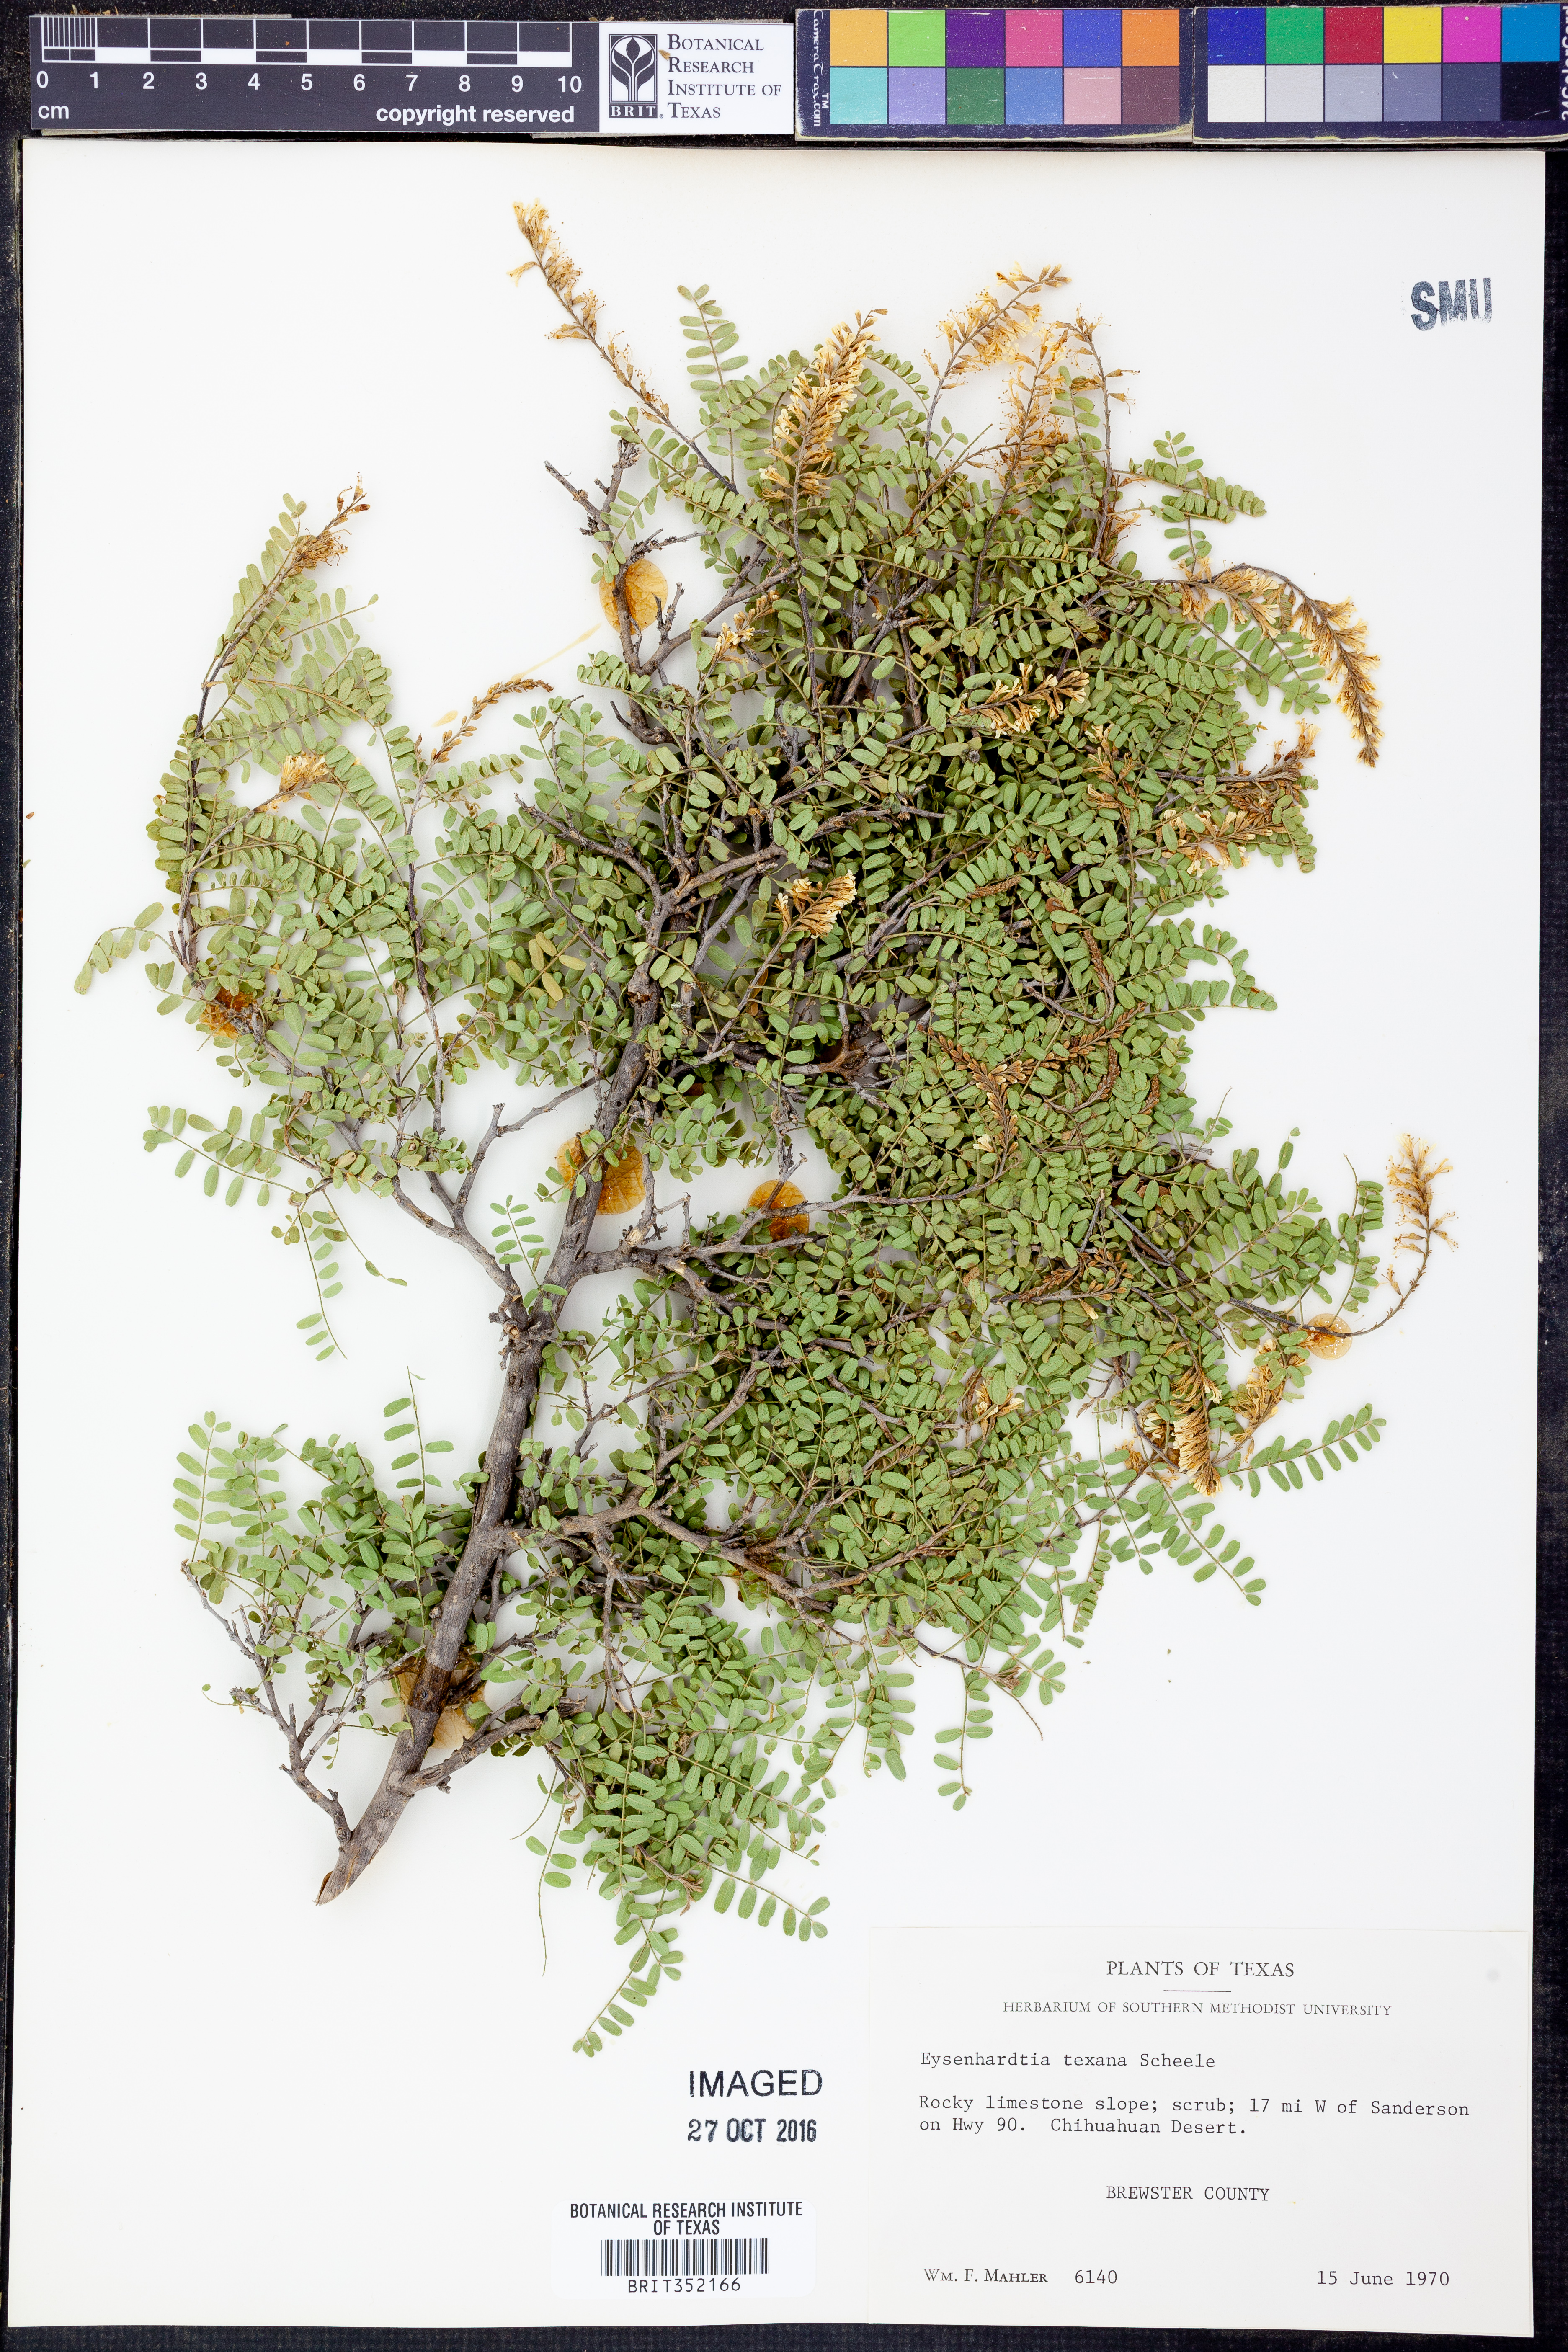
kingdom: Plantae
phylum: Tracheophyta
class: Magnoliopsida
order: Fabales
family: Fabaceae
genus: Eysenhardtia
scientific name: Eysenhardtia texana
